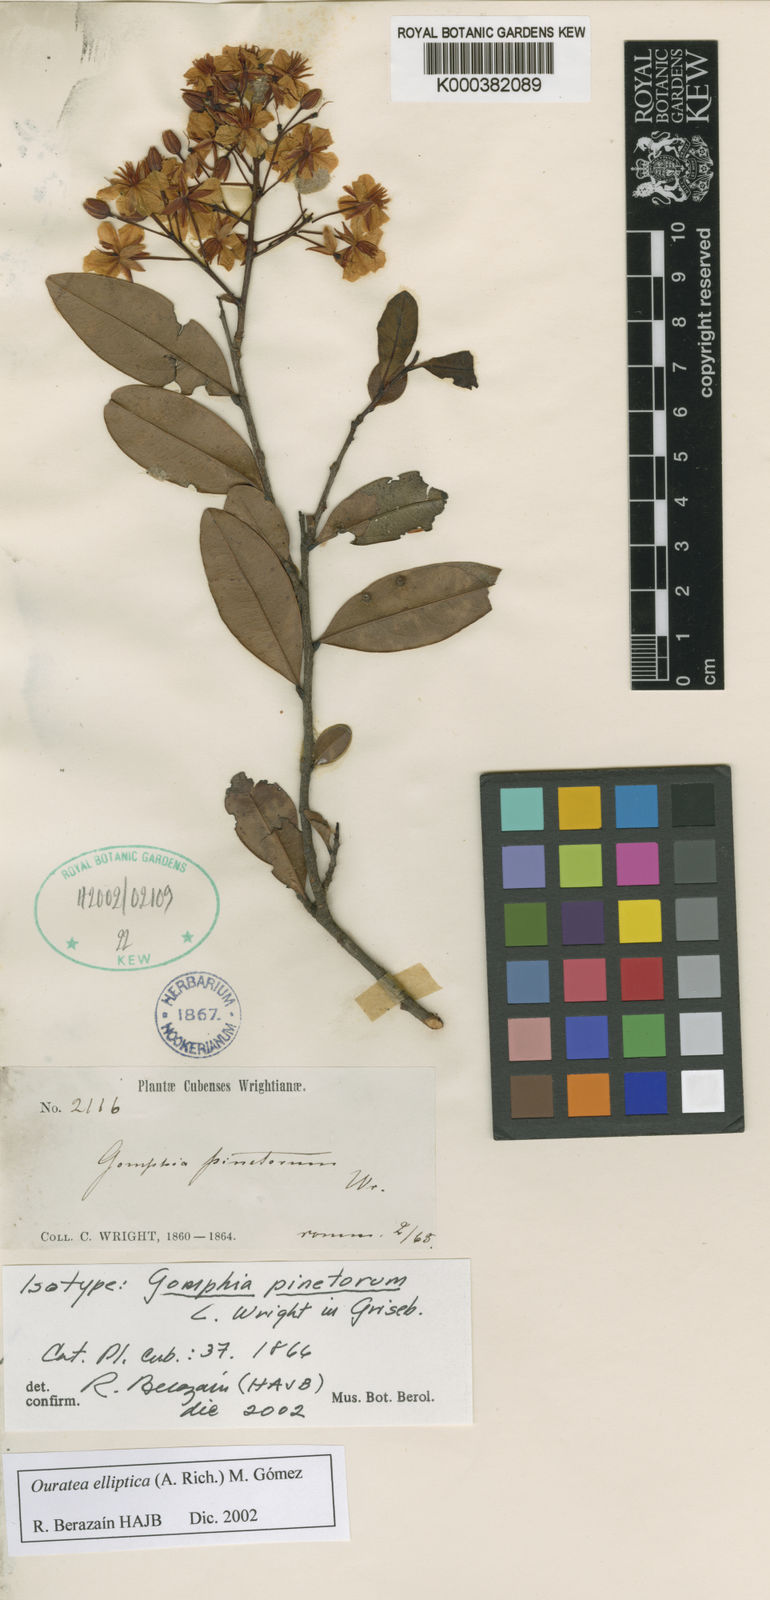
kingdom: Plantae
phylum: Tracheophyta
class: Magnoliopsida
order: Malpighiales
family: Ochnaceae
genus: Ouratea
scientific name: Ouratea
